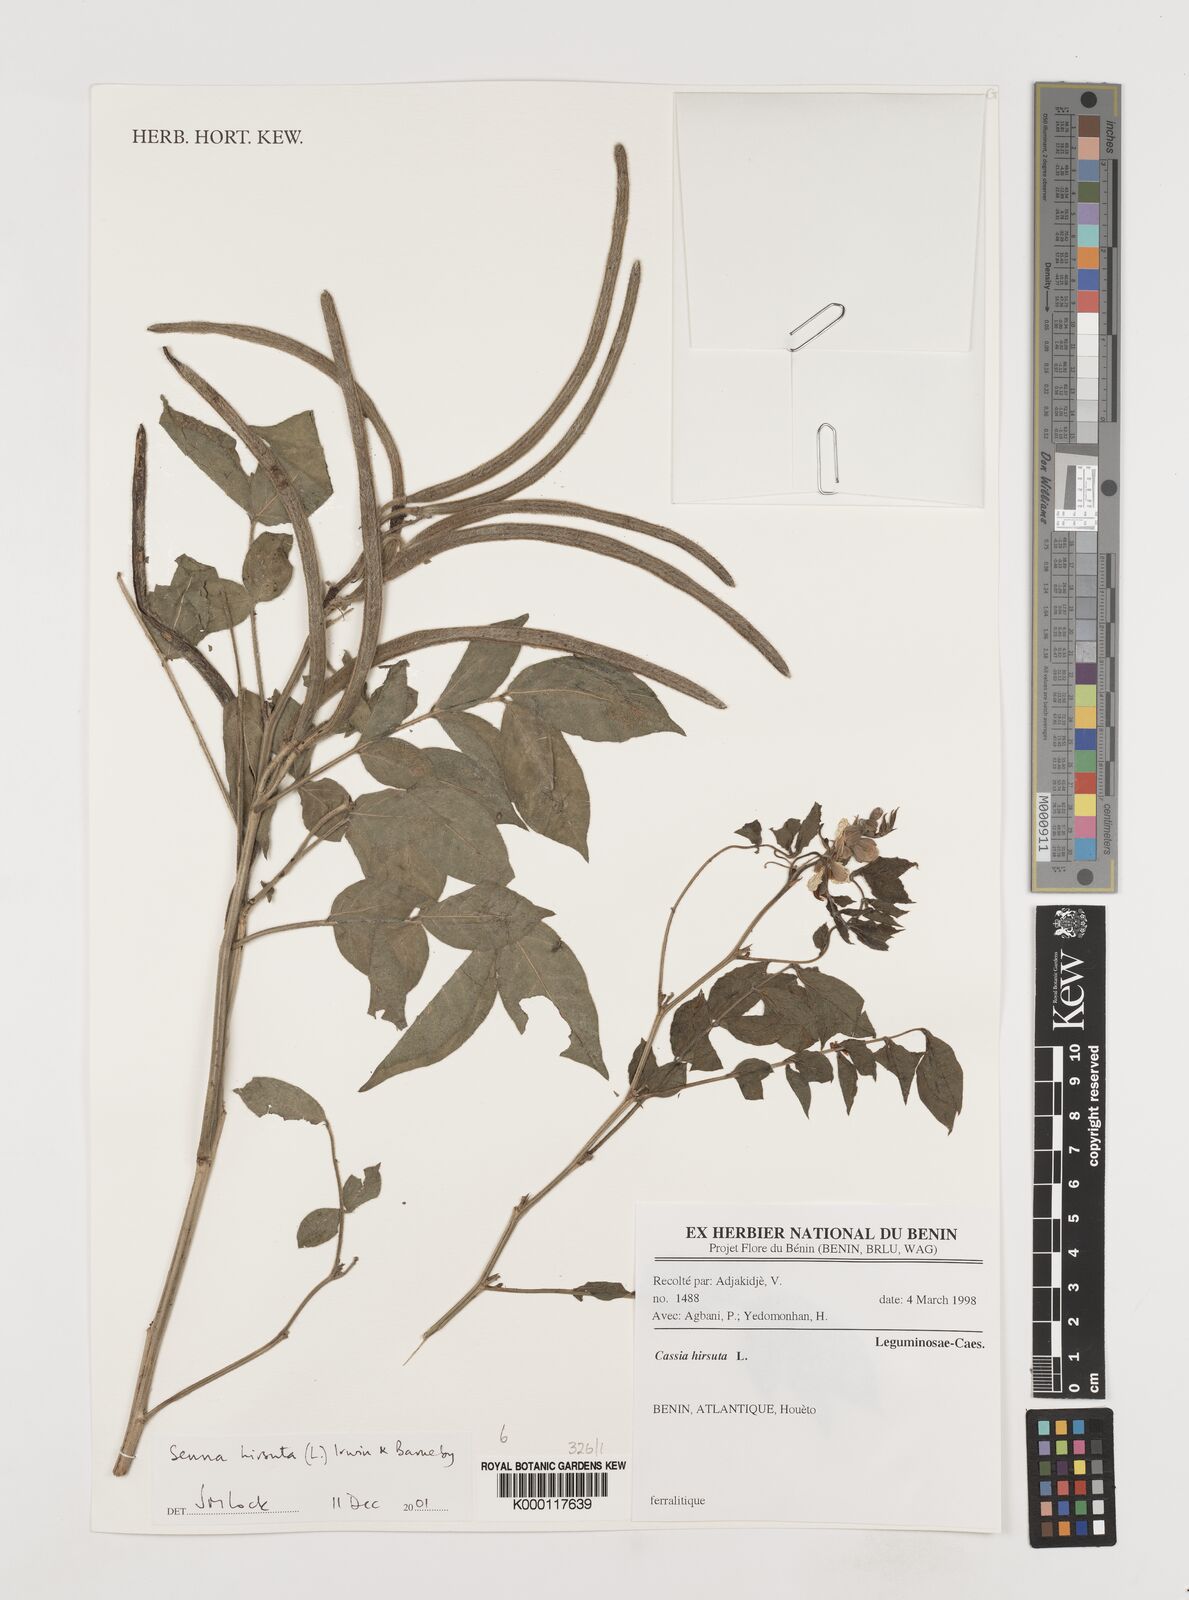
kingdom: Plantae
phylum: Tracheophyta
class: Magnoliopsida
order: Fabales
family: Fabaceae
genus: Senna
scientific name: Senna hirsuta
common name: Woolly senna
